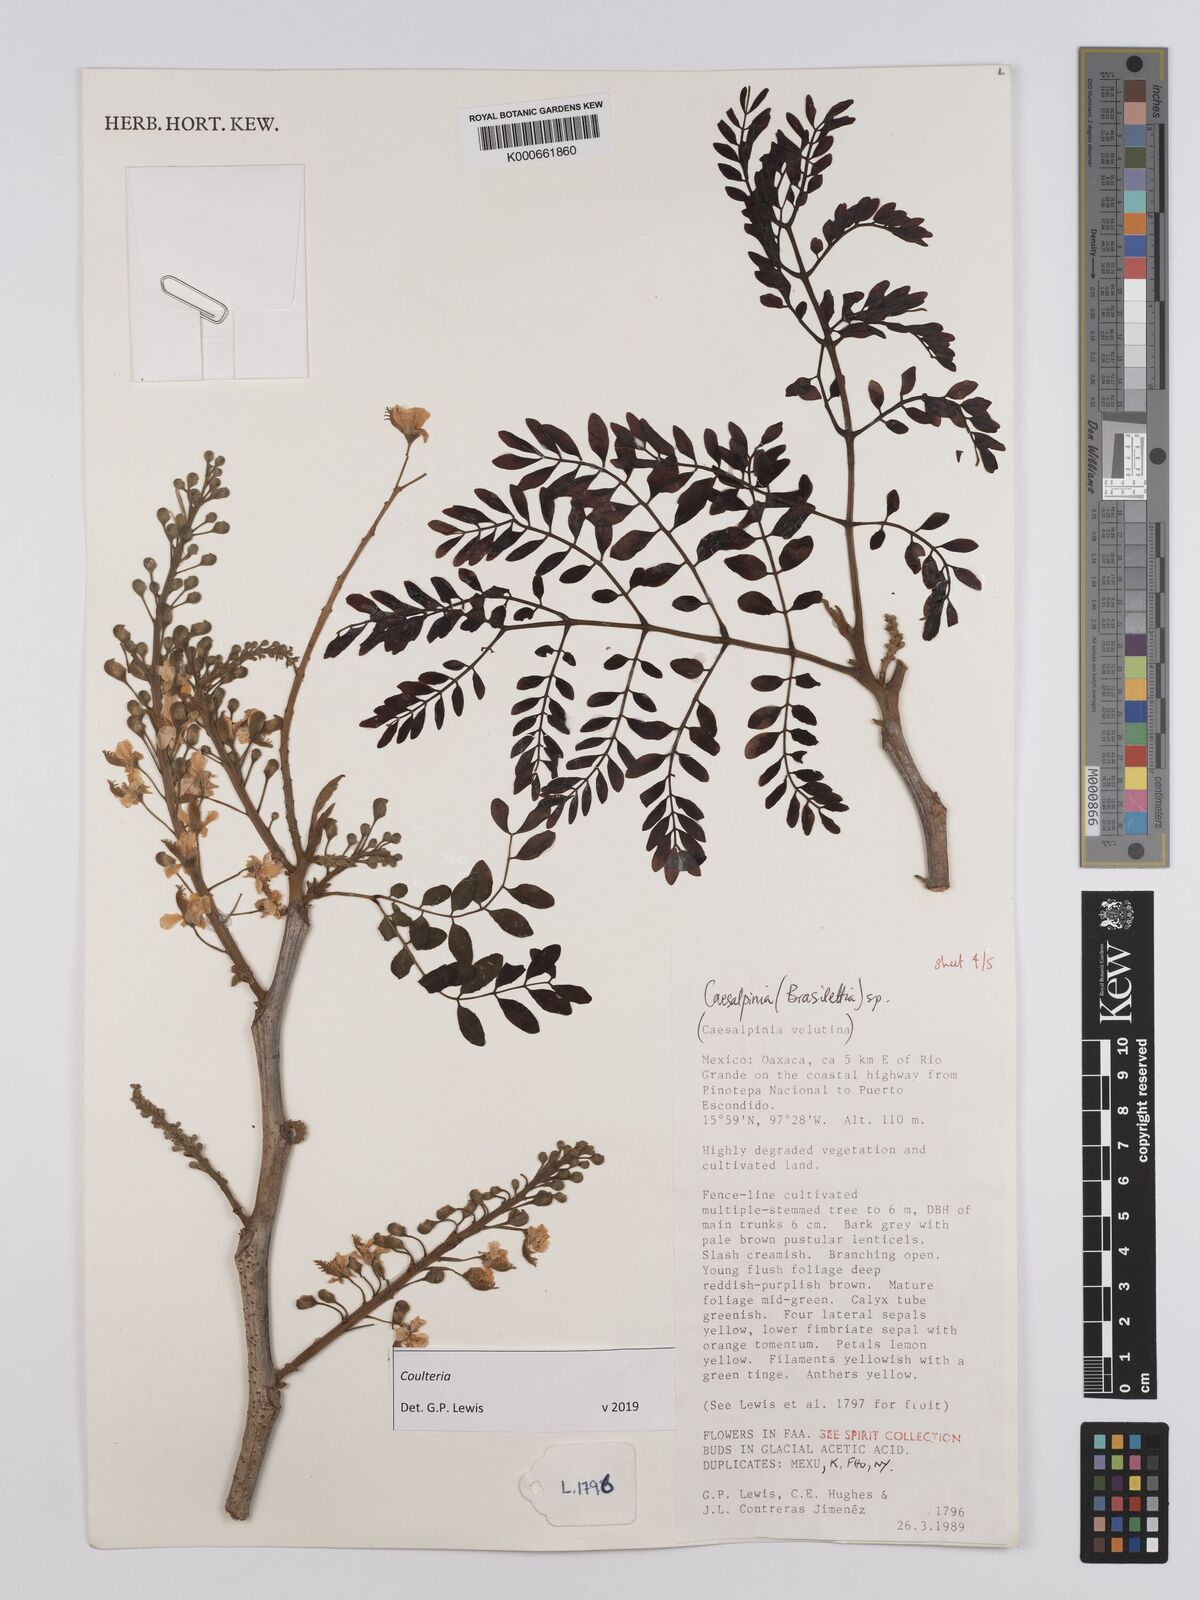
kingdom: Plantae
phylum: Tracheophyta
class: Magnoliopsida
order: Fabales
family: Fabaceae
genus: Coulteria
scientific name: Coulteria
